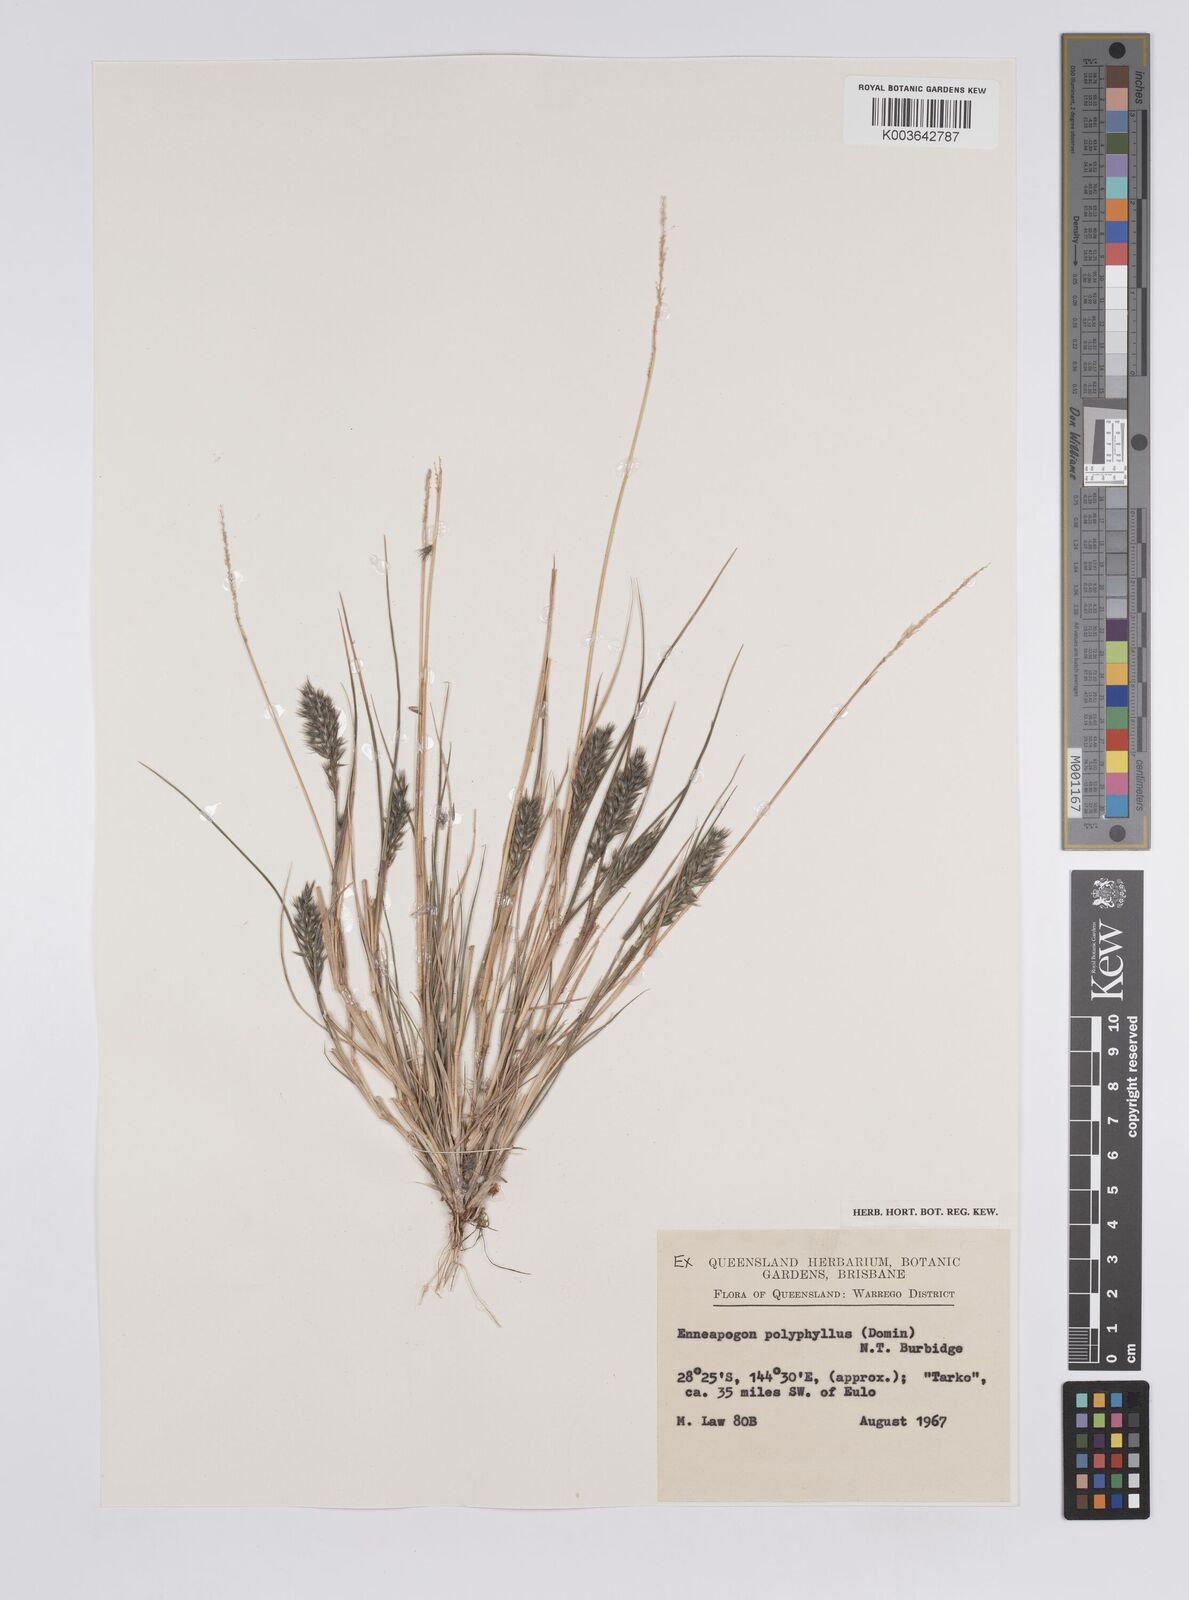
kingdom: Plantae
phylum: Tracheophyta
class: Liliopsida
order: Poales
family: Poaceae
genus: Enneapogon
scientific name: Enneapogon polyphyllus
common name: Leafy nineawn
